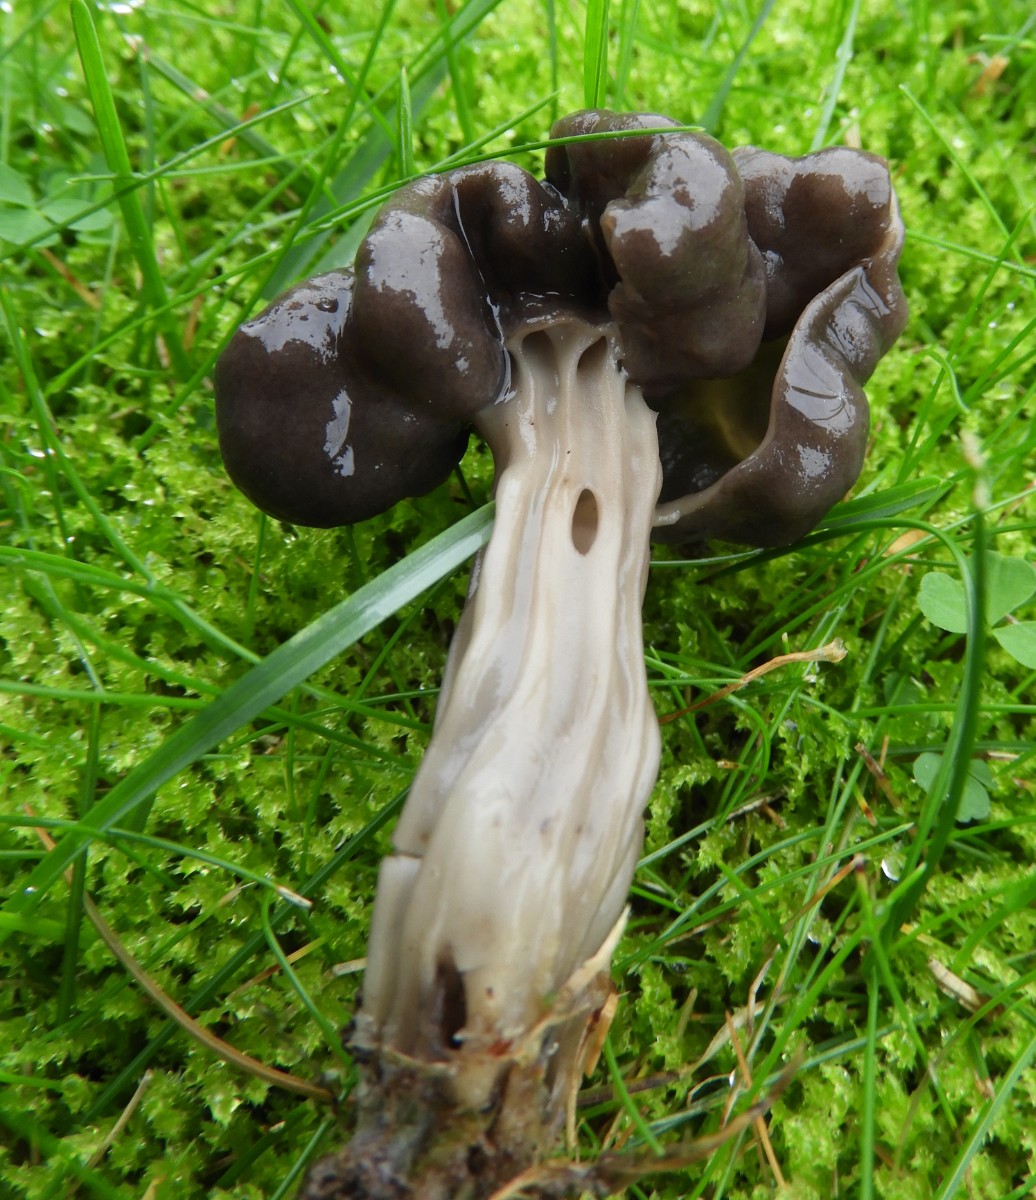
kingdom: Fungi
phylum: Ascomycota
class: Pezizomycetes
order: Pezizales
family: Helvellaceae
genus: Helvella
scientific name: Helvella lacunosa
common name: grubet foldhat
